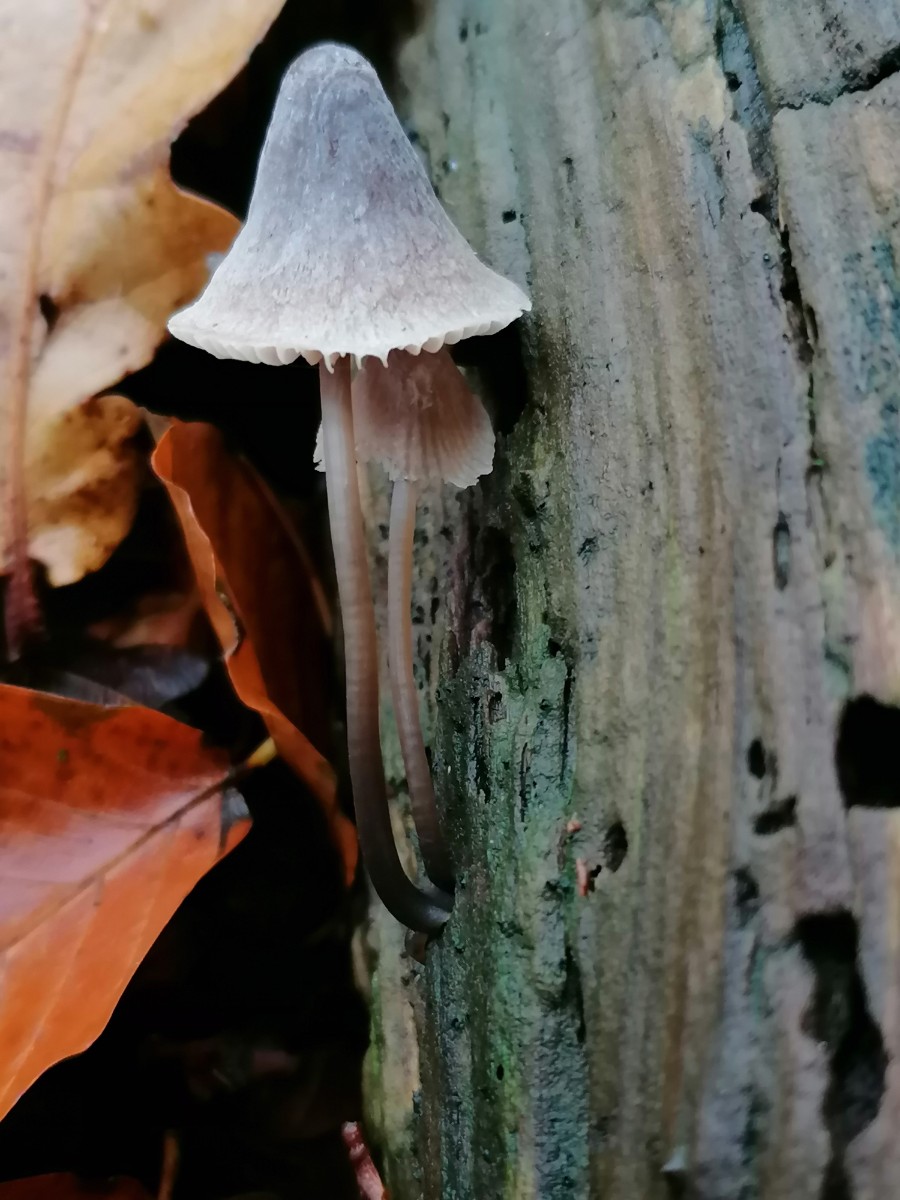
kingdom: Fungi
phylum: Basidiomycota
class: Agaricomycetes
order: Agaricales
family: Mycenaceae
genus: Mycena
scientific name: Mycena polygramma
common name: mangestribet huesvamp
